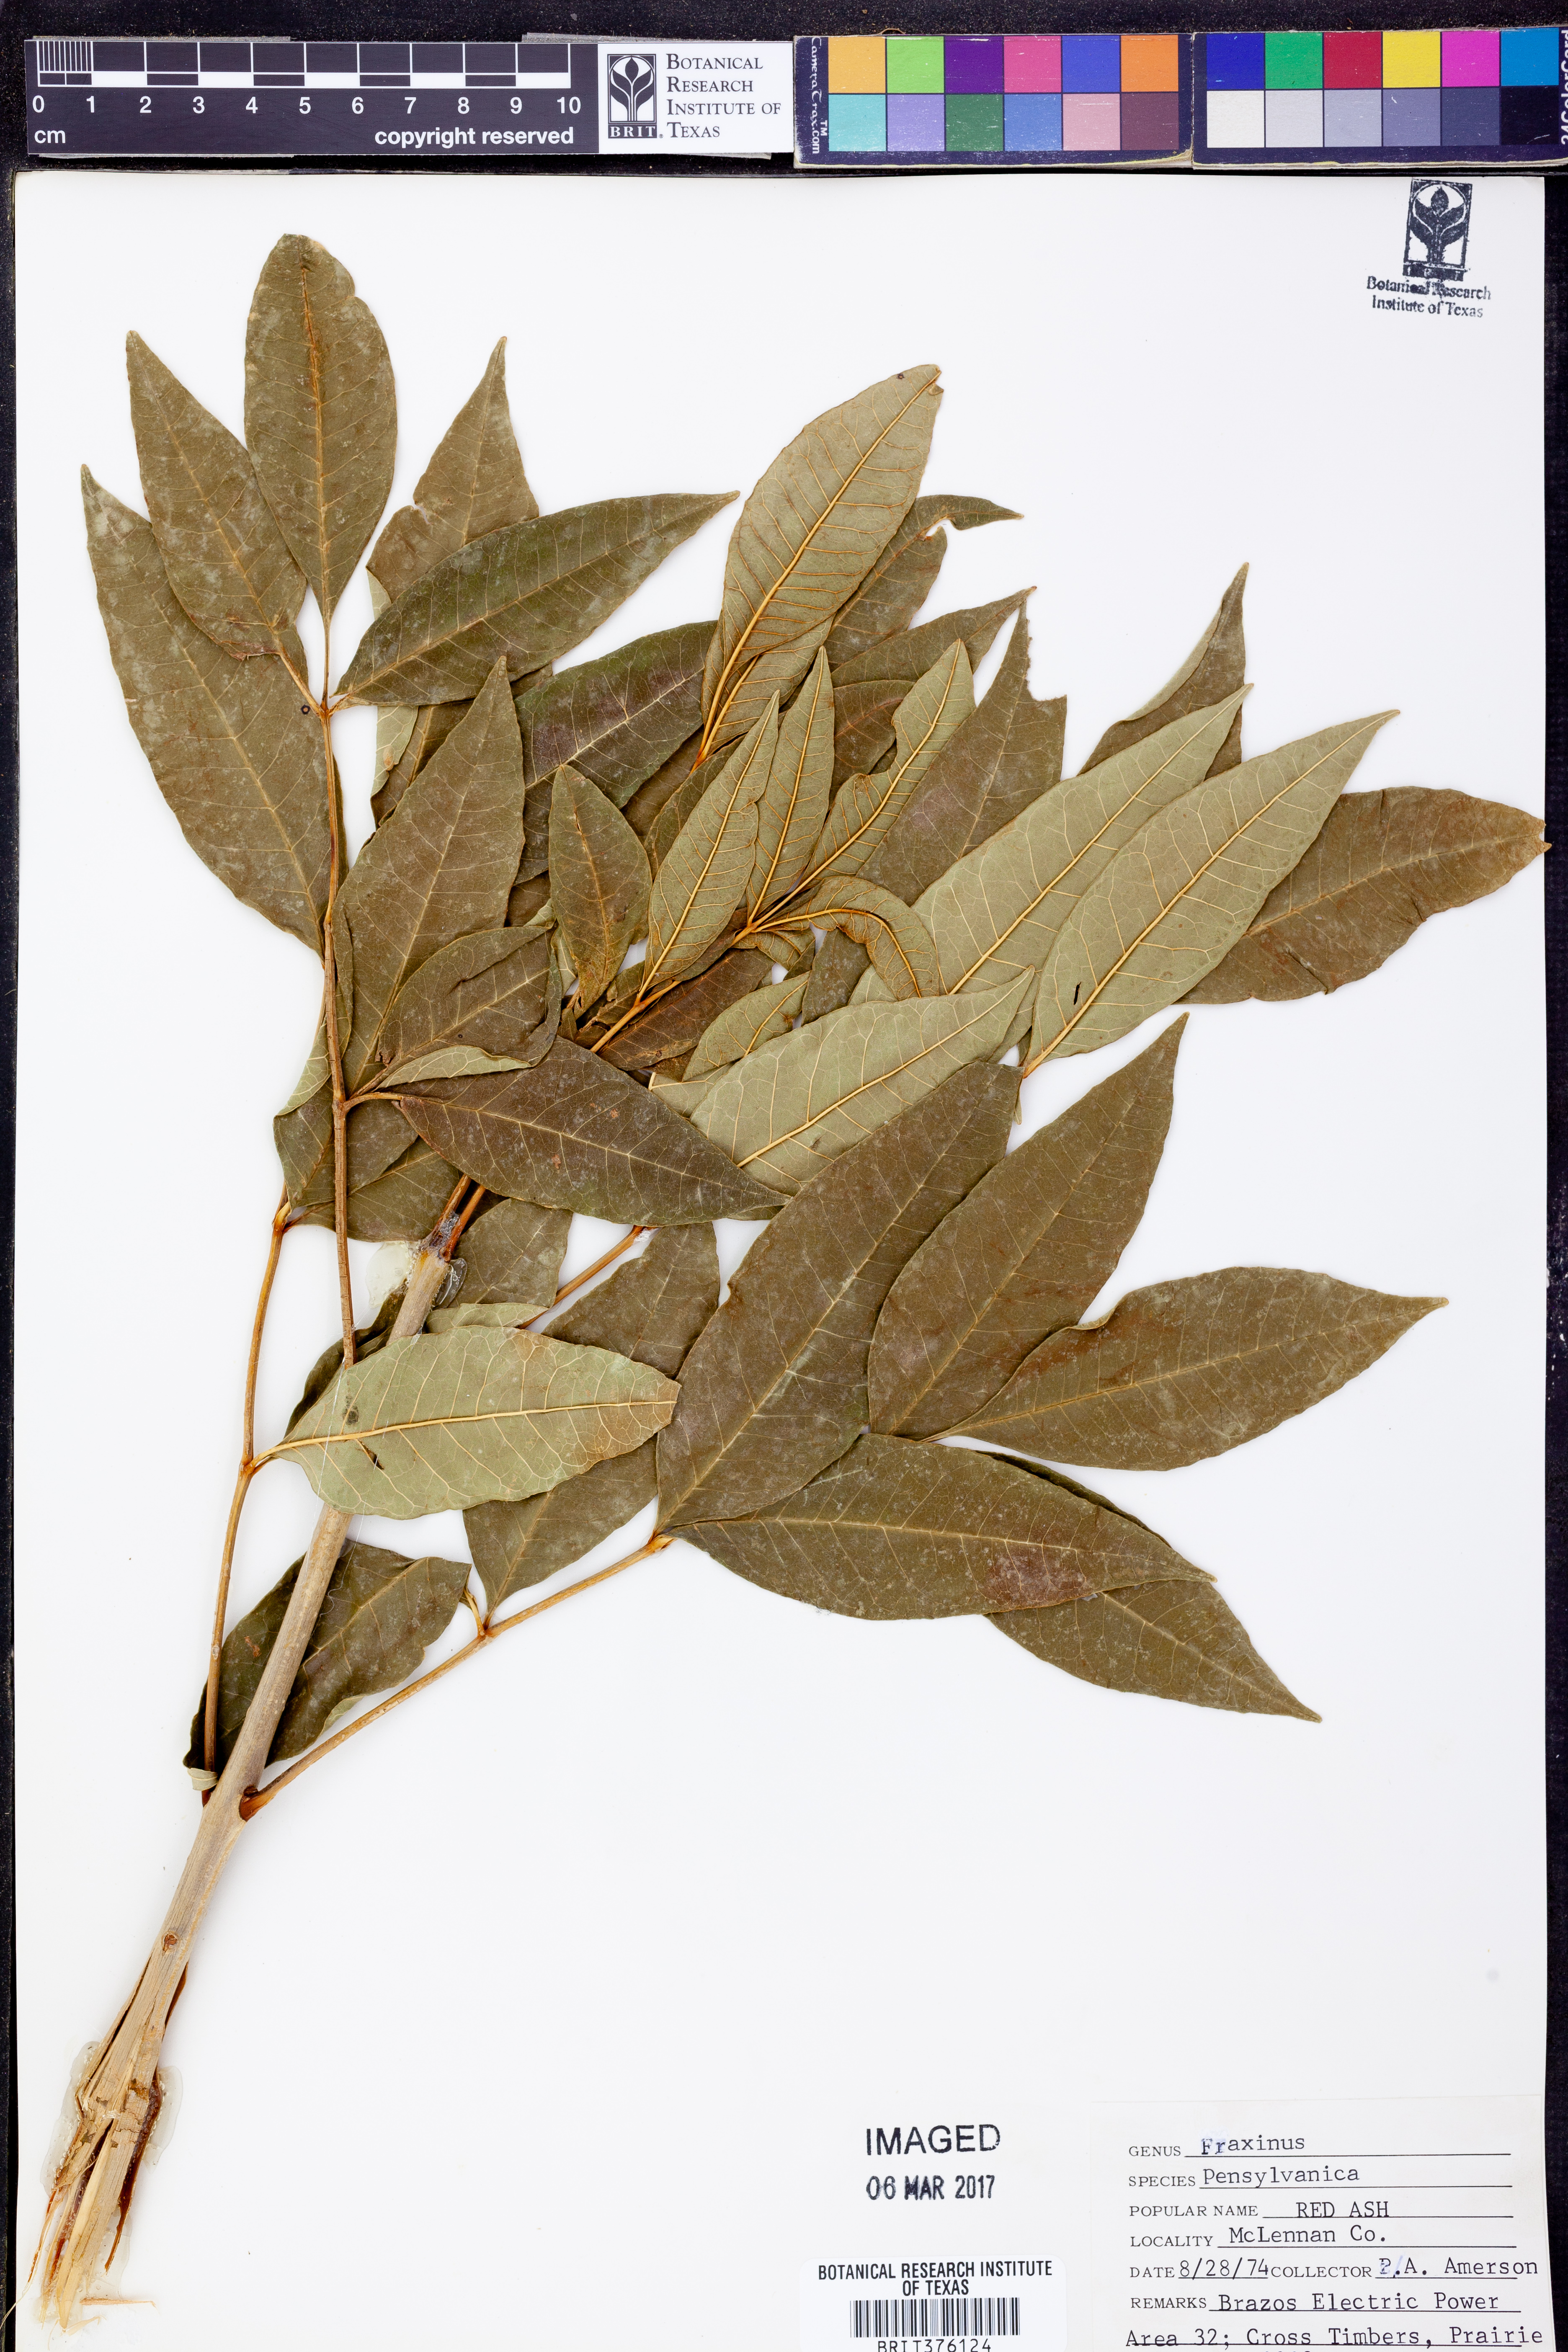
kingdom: Plantae
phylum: Tracheophyta
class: Magnoliopsida
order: Lamiales
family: Oleaceae
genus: Fraxinus
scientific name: Fraxinus pennsylvanica
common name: Green ash
